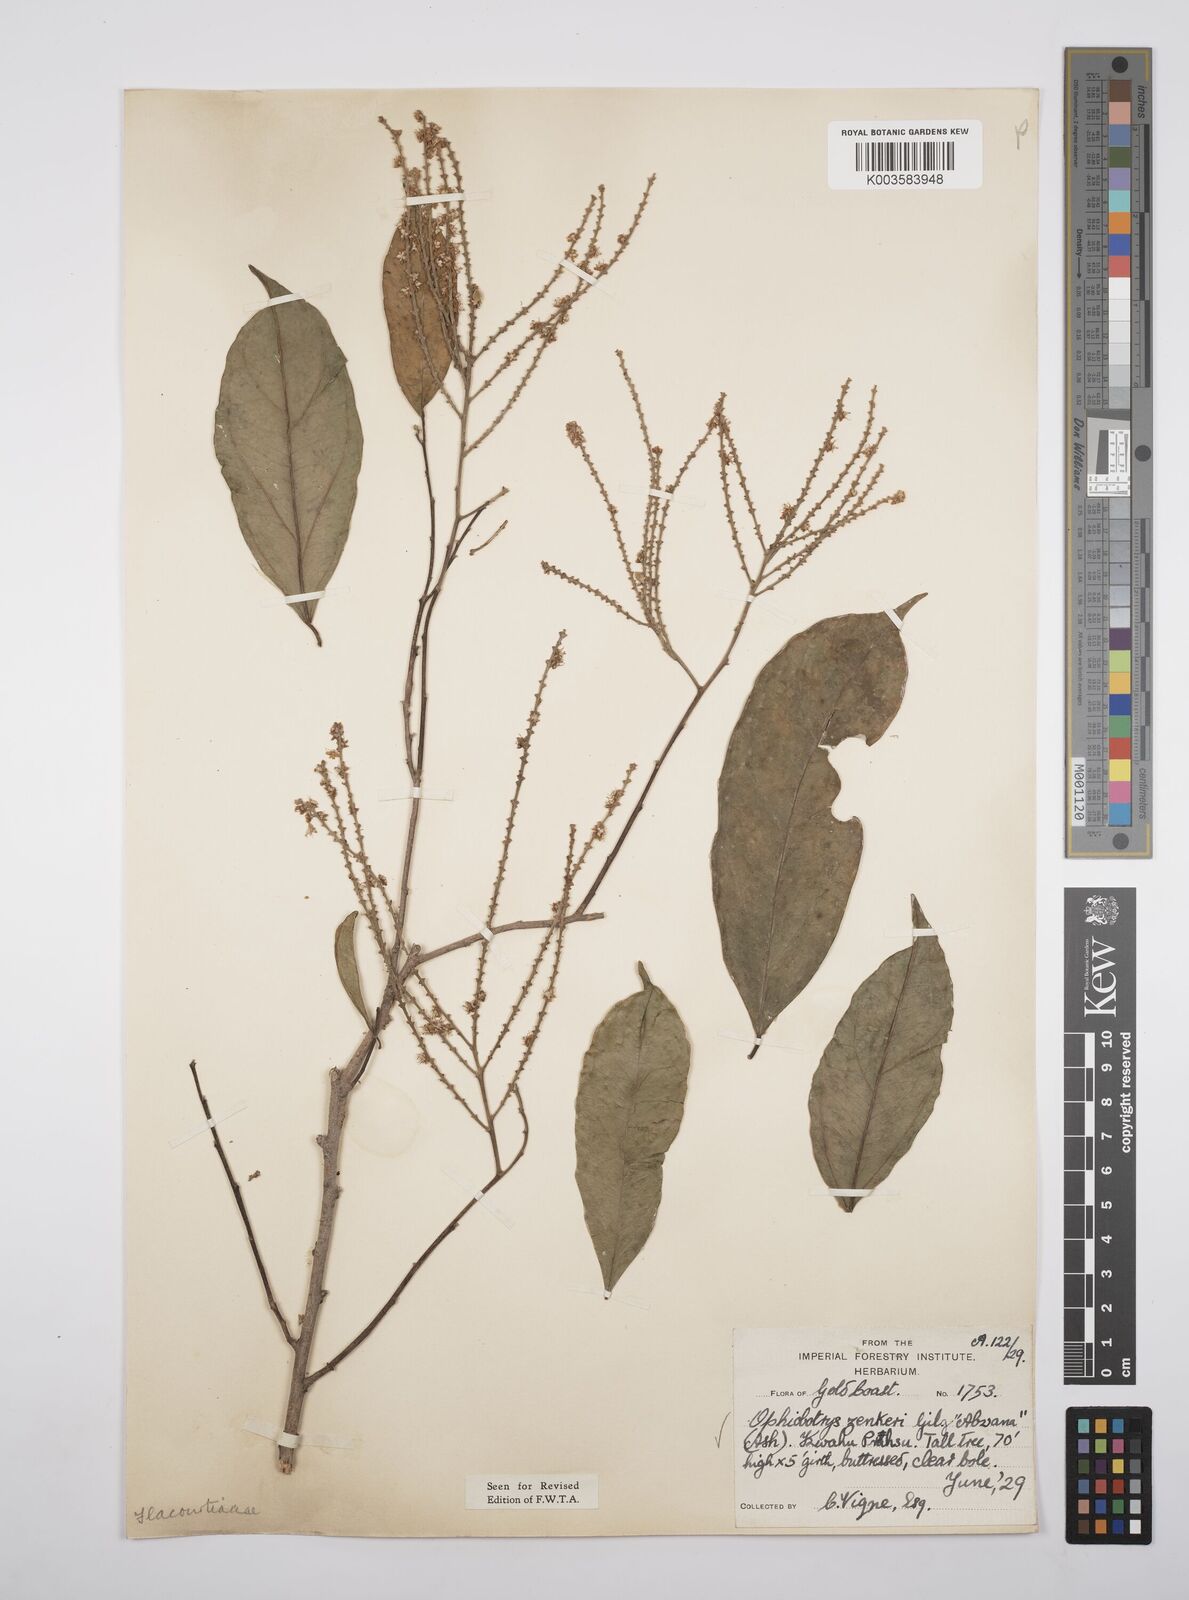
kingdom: Plantae
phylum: Tracheophyta
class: Magnoliopsida
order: Malpighiales
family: Salicaceae
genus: Ophiobotrys
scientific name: Ophiobotrys zenkeri
